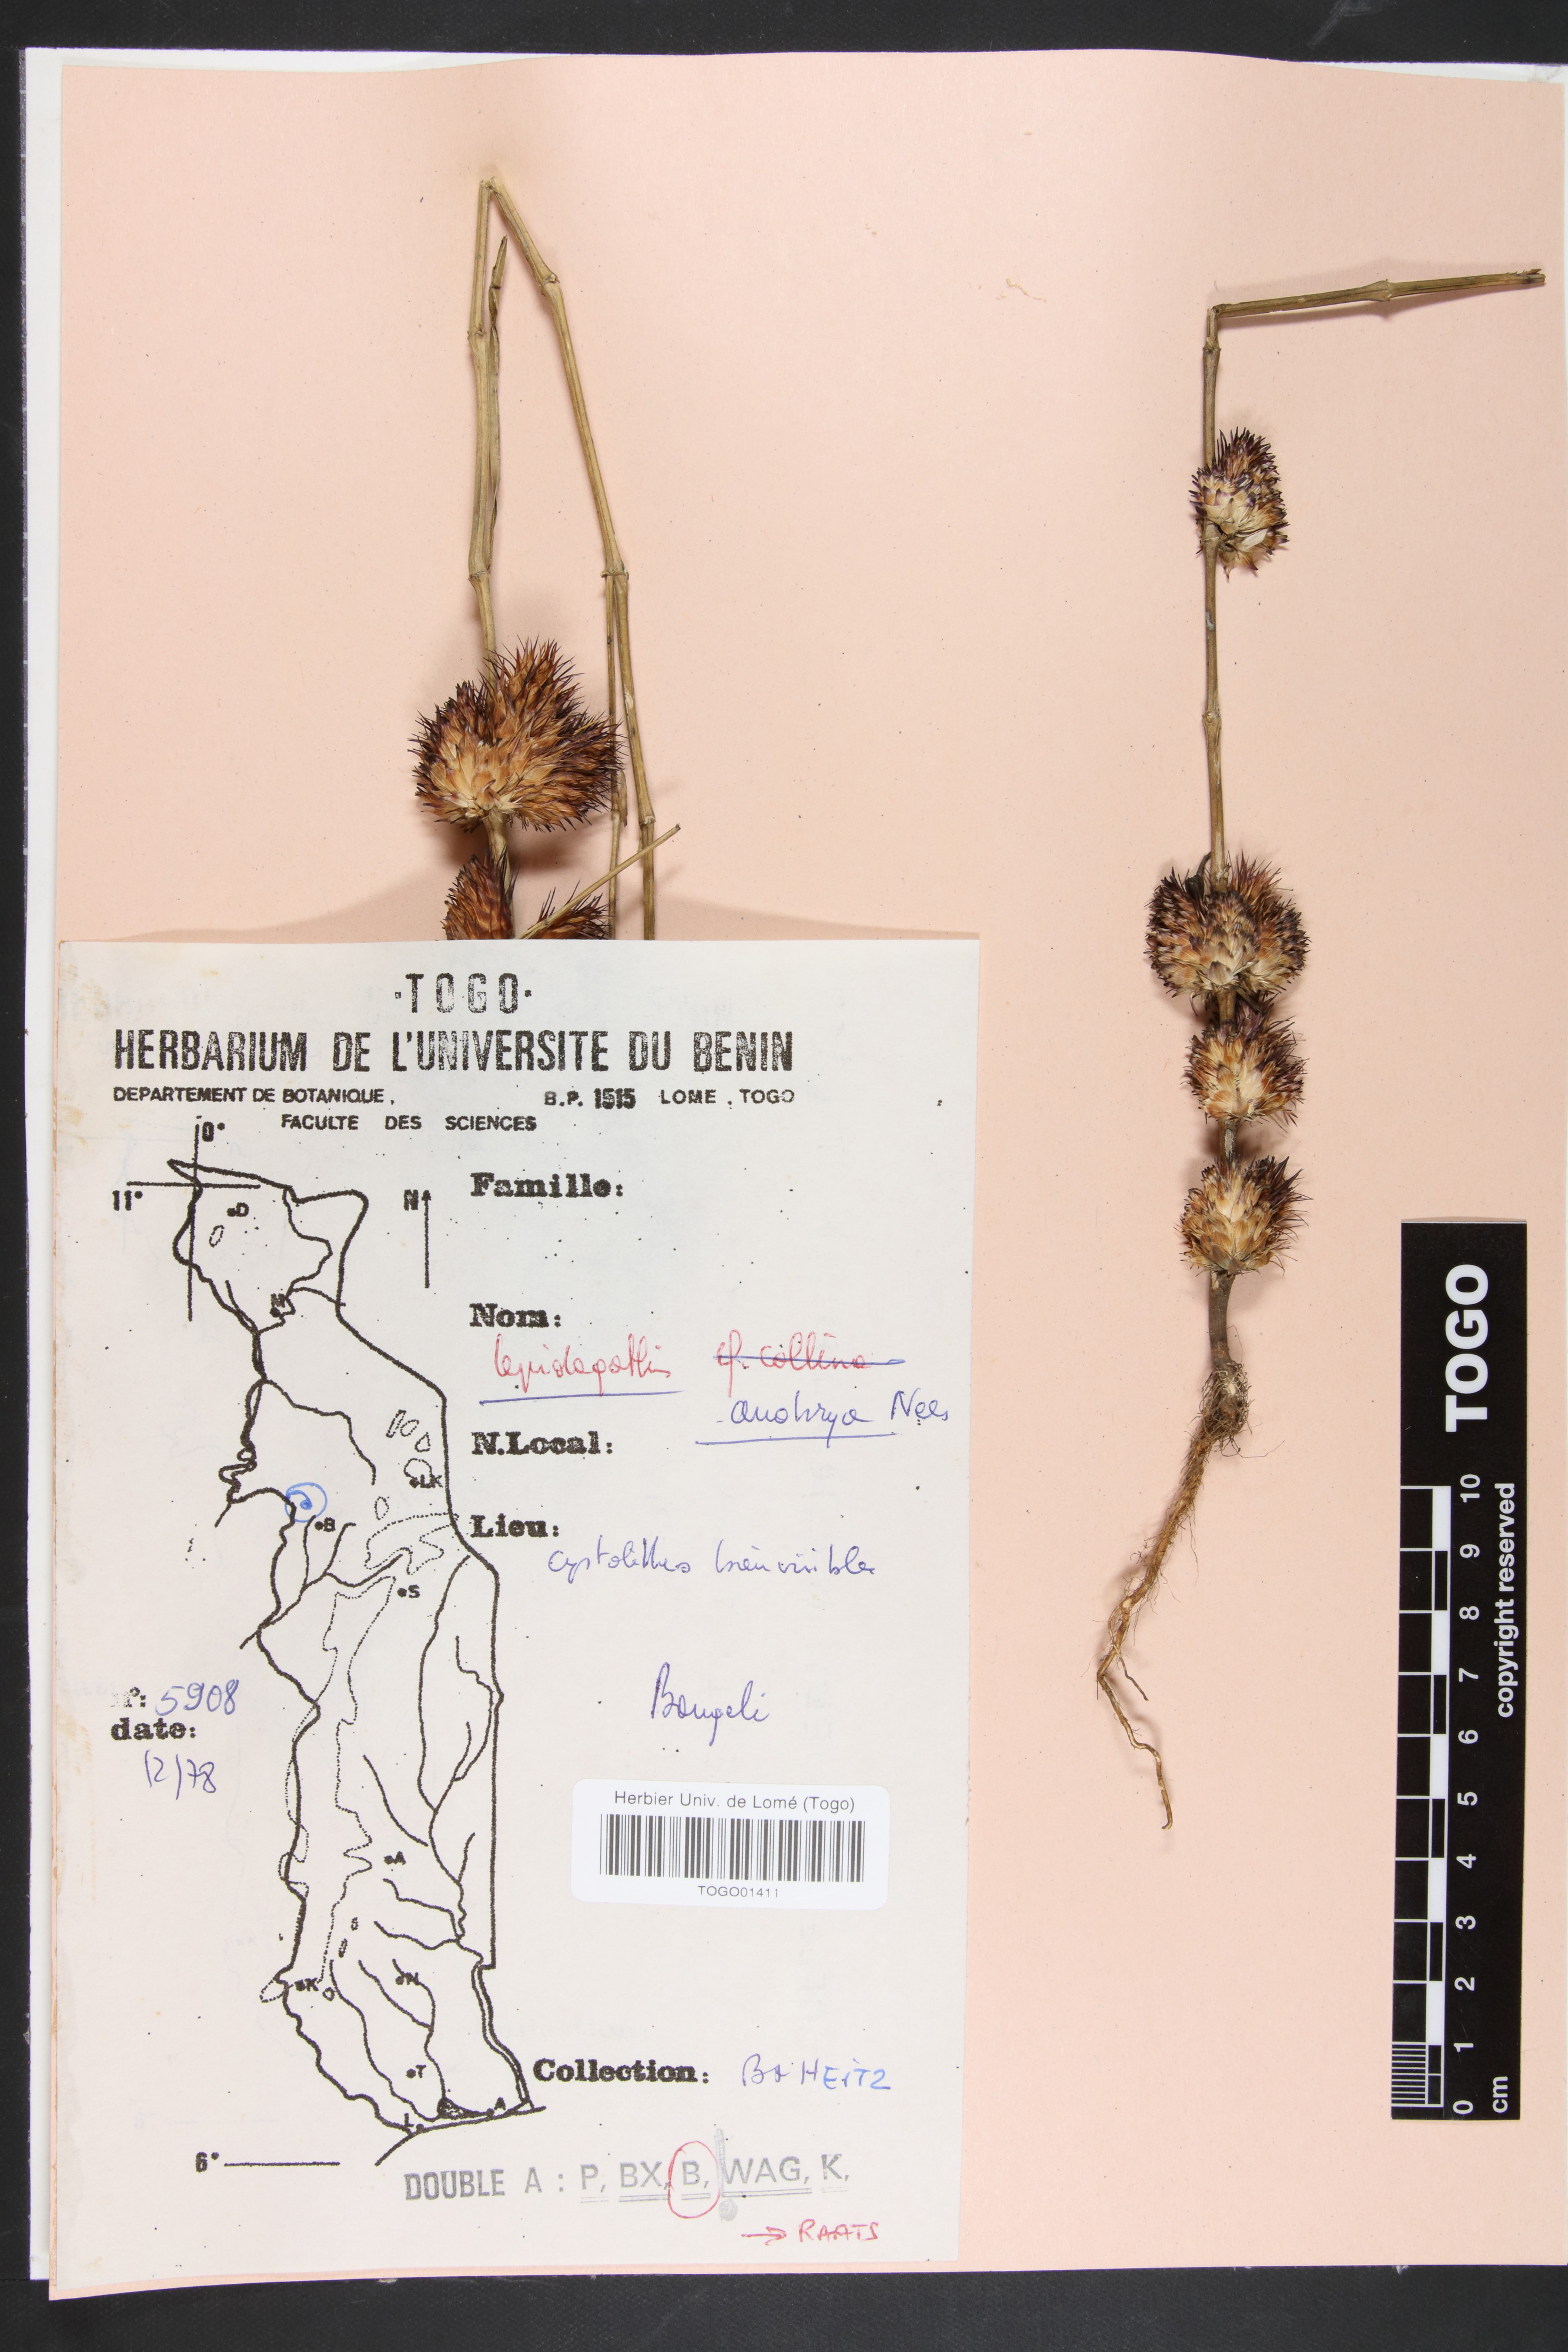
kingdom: Plantae
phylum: Tracheophyta
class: Magnoliopsida
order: Lamiales
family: Acanthaceae
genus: Lepidagathis
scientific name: Lepidagathis anobrya
